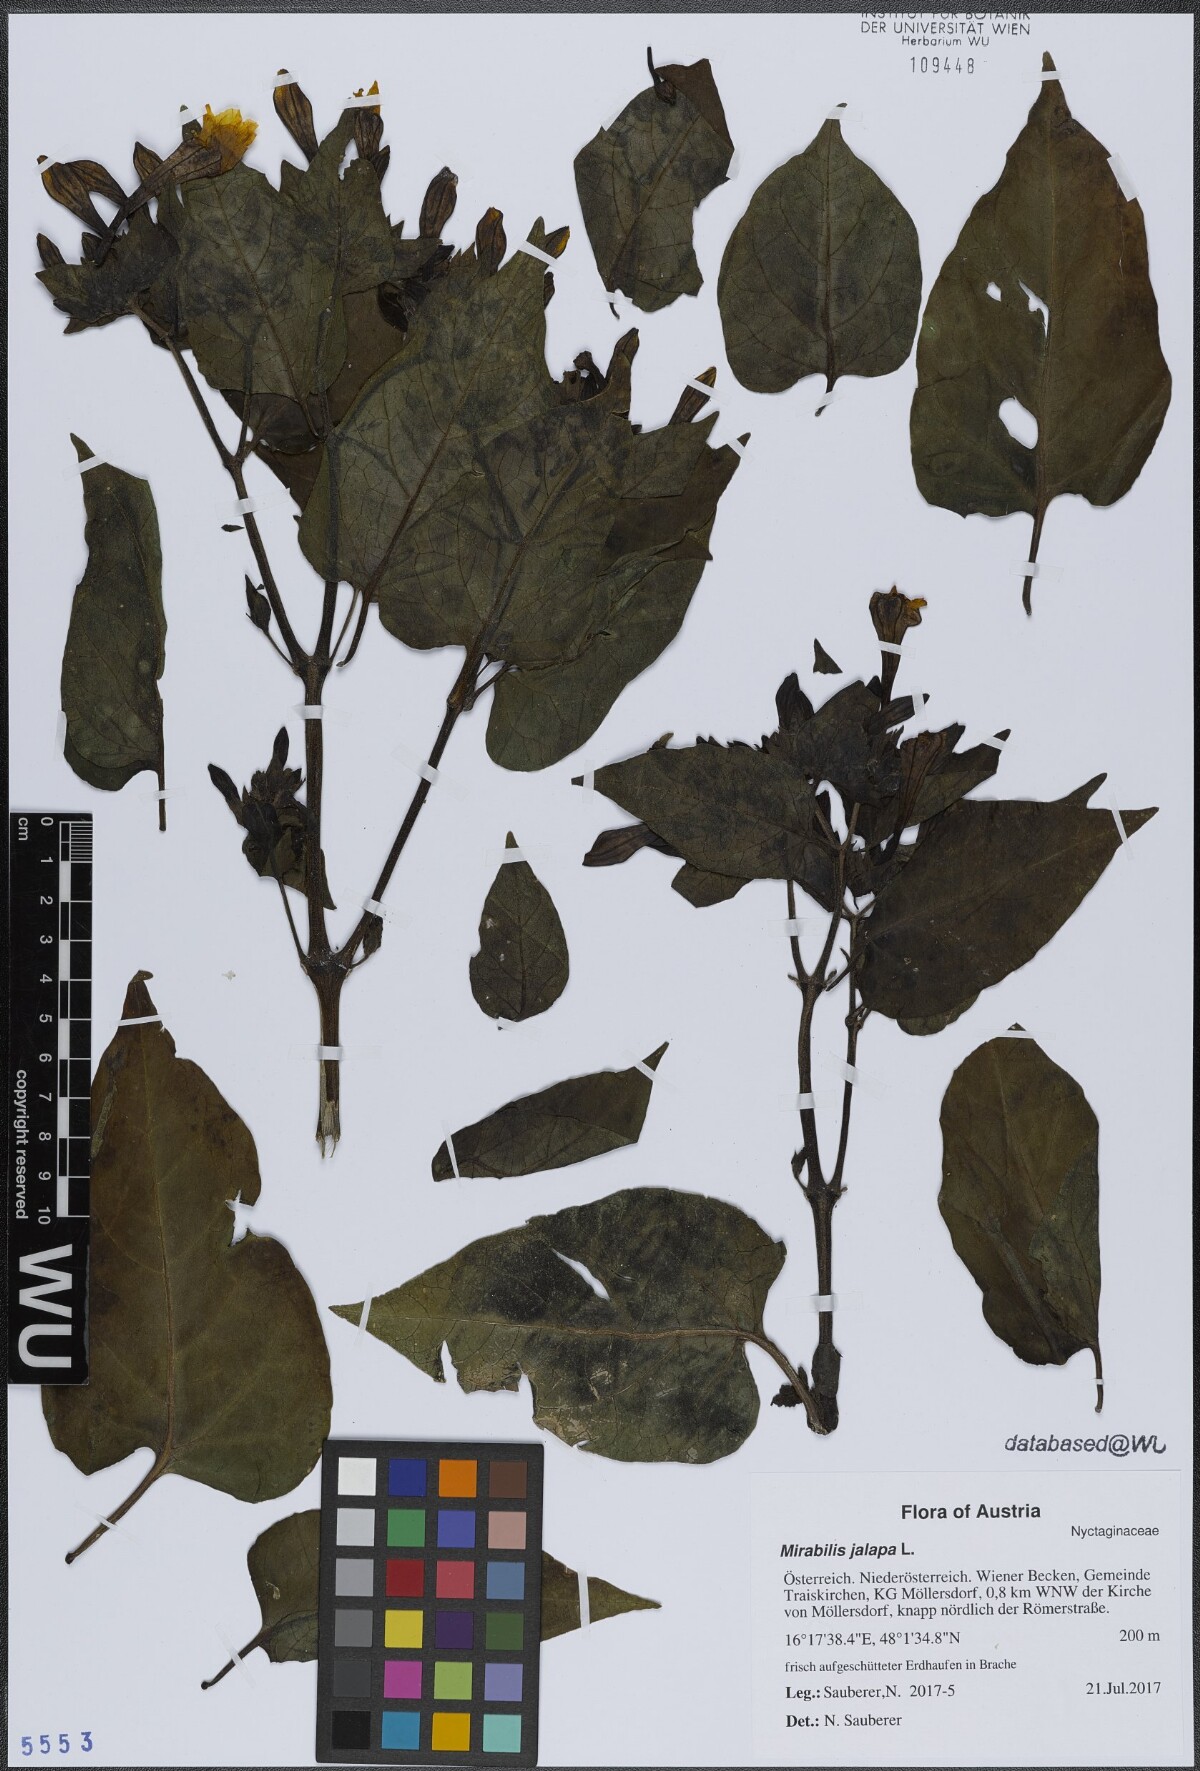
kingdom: Plantae
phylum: Tracheophyta
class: Magnoliopsida
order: Caryophyllales
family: Nyctaginaceae
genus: Mirabilis
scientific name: Mirabilis jalapa
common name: Marvel-of-peru
